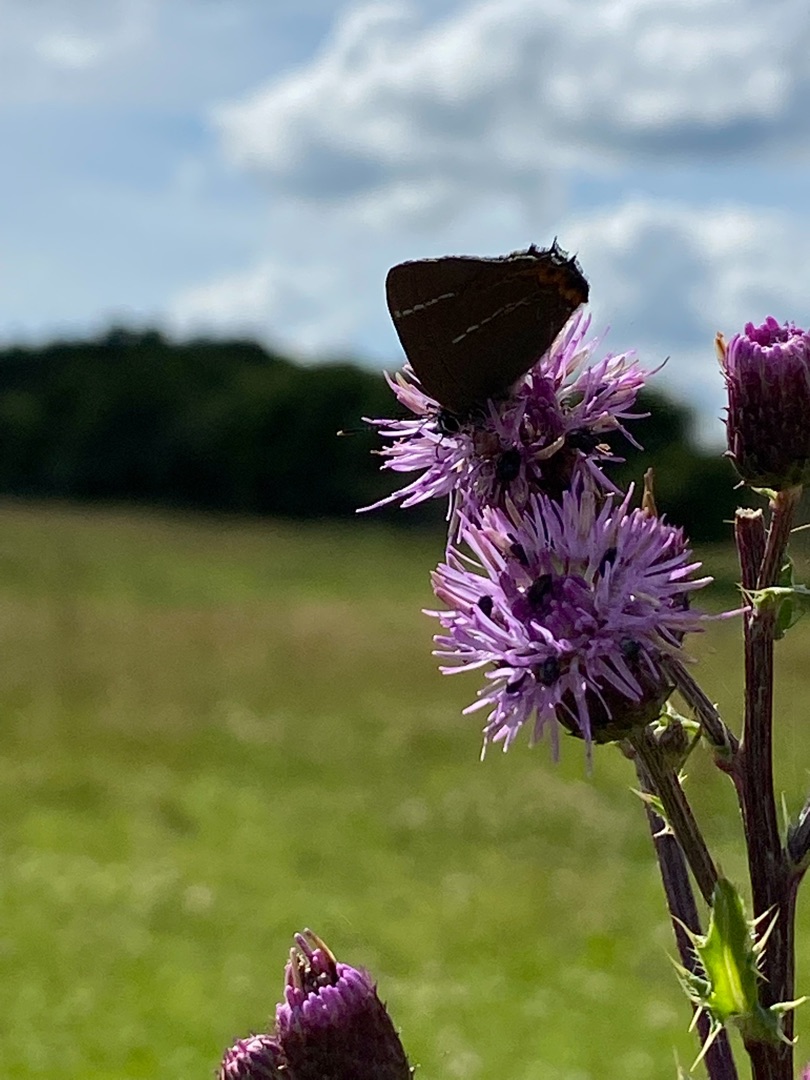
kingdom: Animalia
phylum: Arthropoda
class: Insecta
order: Lepidoptera
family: Lycaenidae
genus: Satyrium
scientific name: Satyrium w-album
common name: Det hvide W
